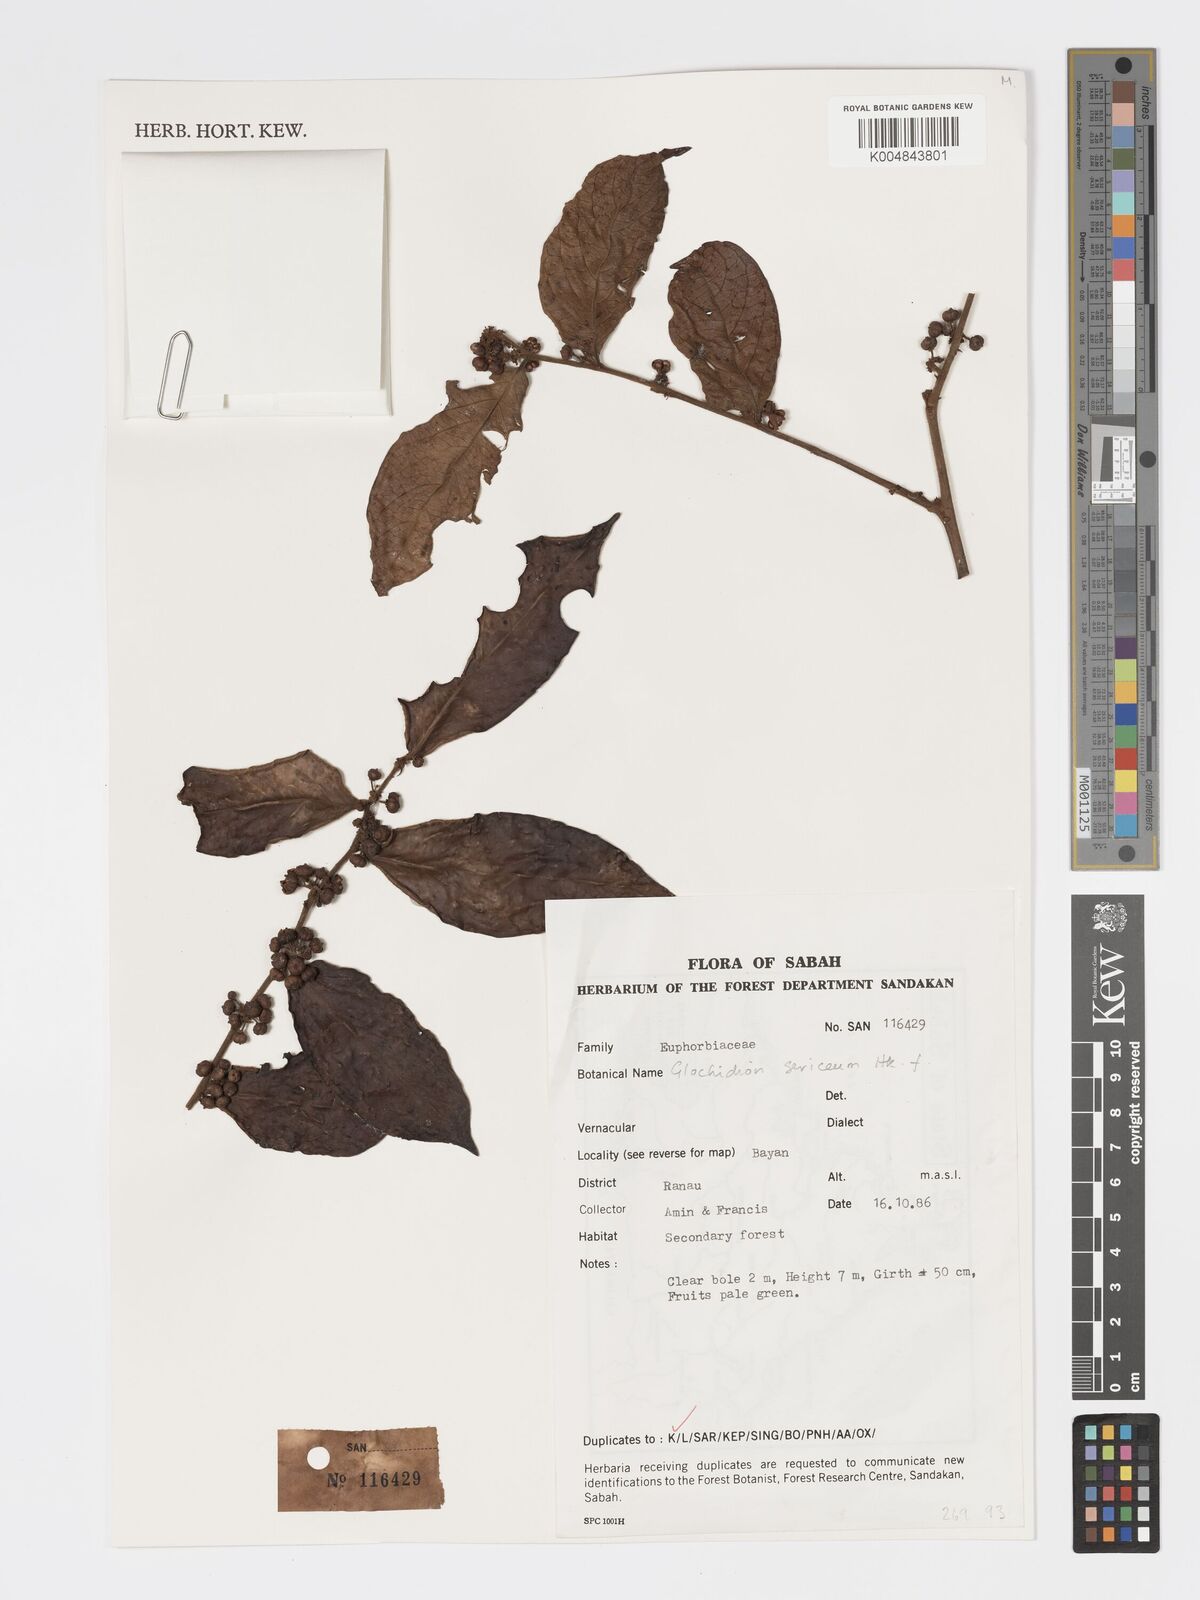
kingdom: Plantae
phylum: Tracheophyta
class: Magnoliopsida
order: Malpighiales
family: Phyllanthaceae
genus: Glochidion
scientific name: Glochidion sericeum
